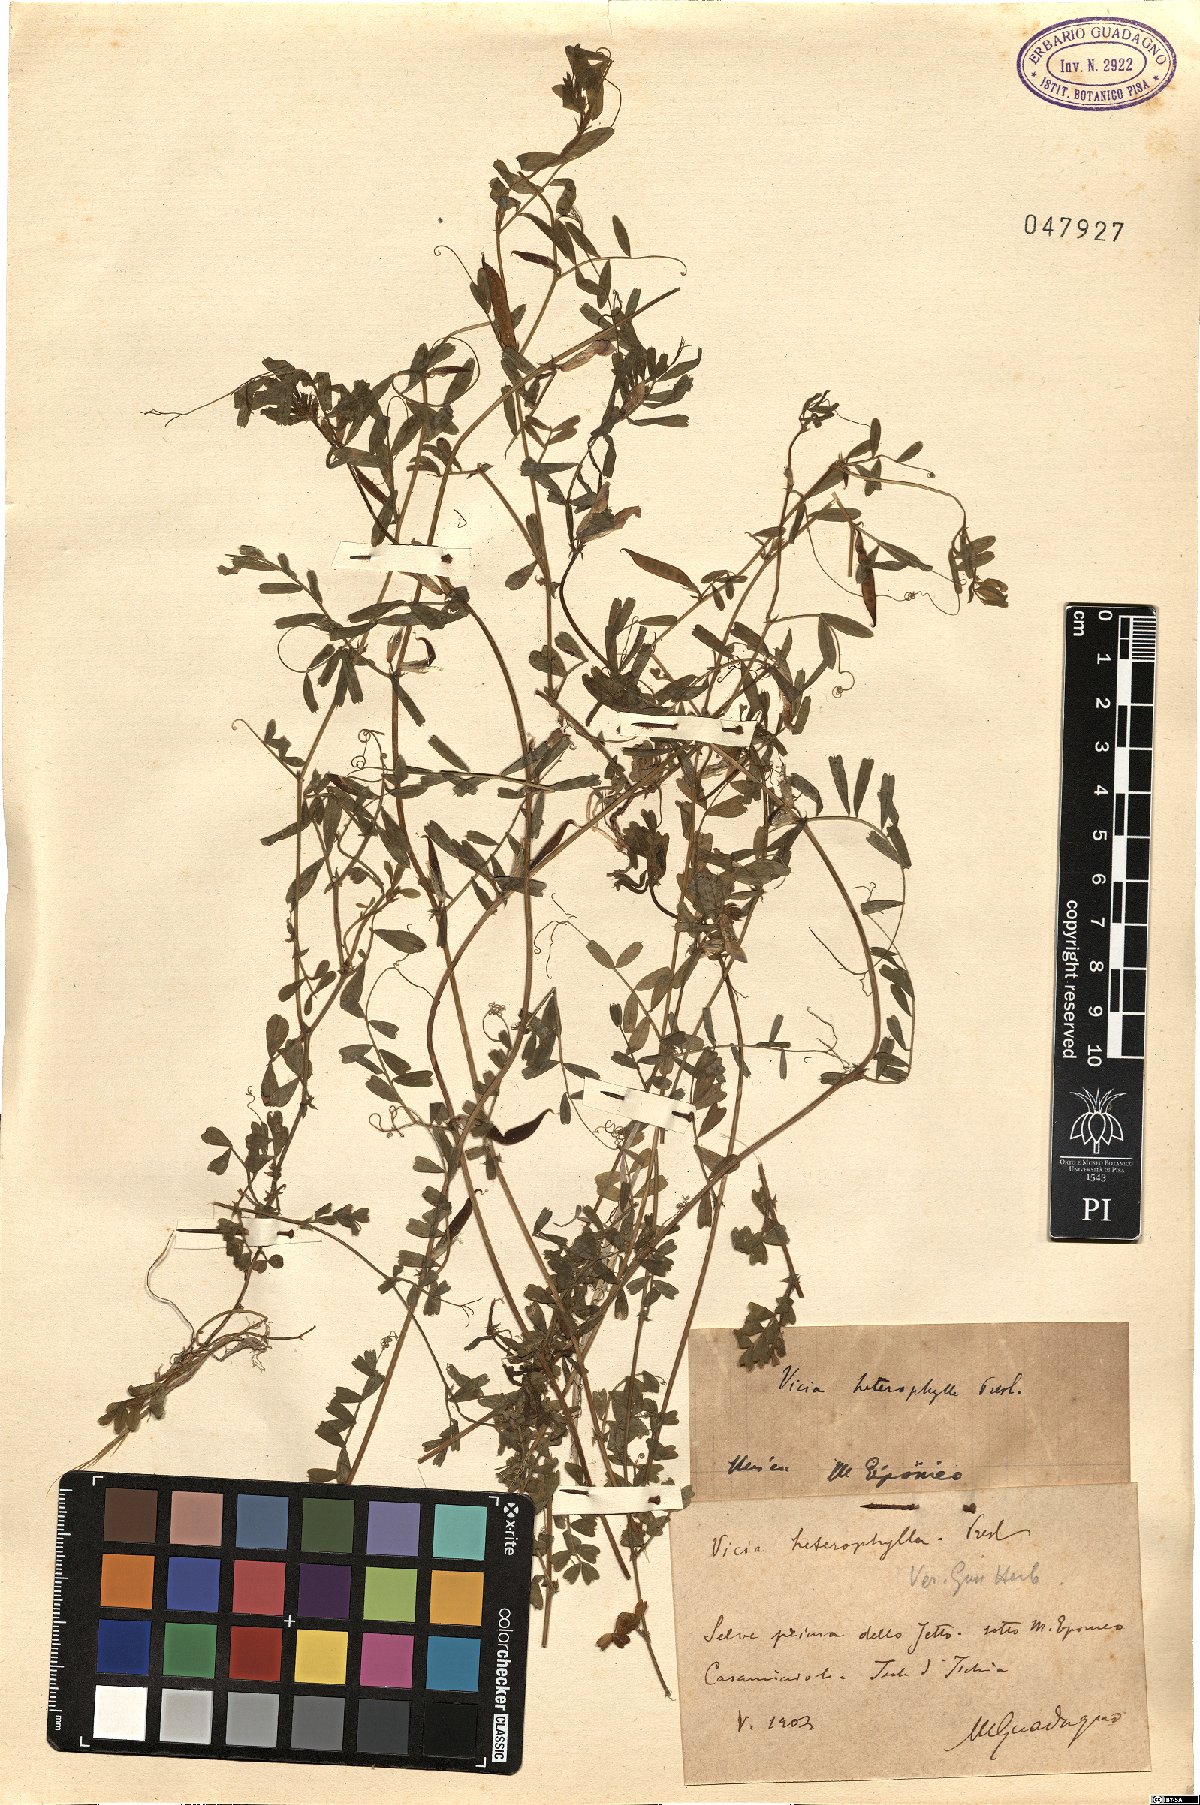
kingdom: Plantae
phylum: Tracheophyta
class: Magnoliopsida
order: Fabales
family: Fabaceae
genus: Vicia
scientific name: Vicia sativa
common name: Garden vetch
